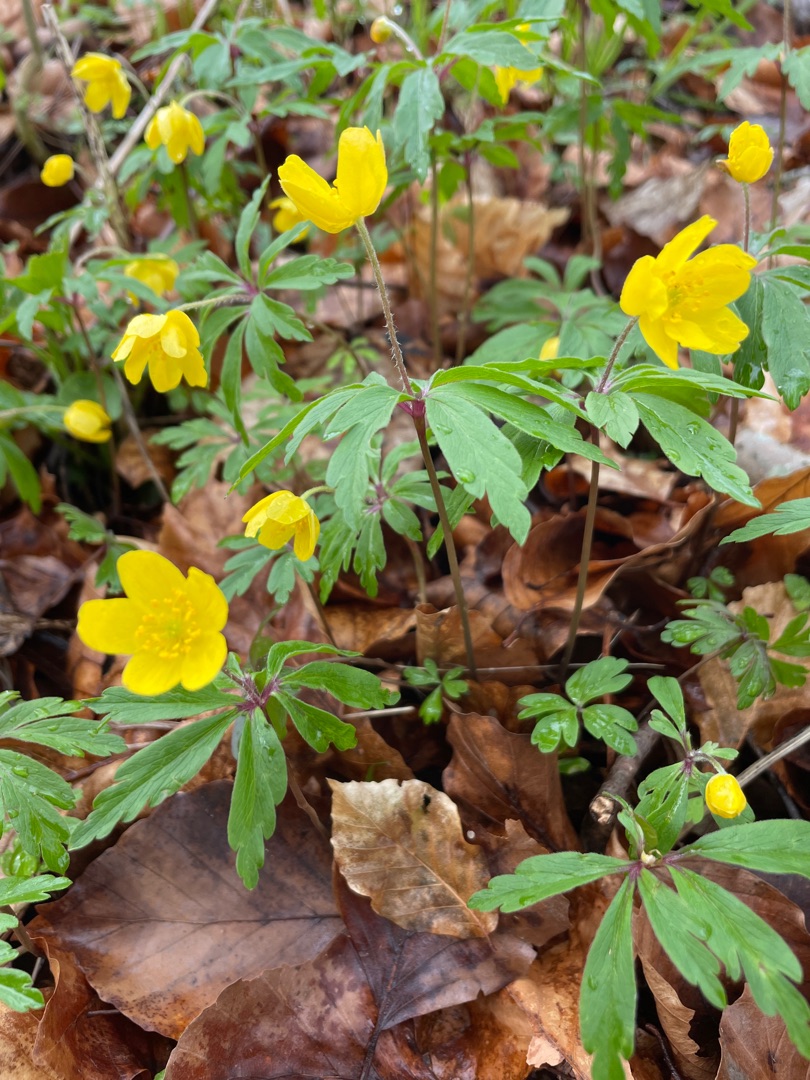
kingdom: Plantae
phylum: Tracheophyta
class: Magnoliopsida
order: Ranunculales
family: Ranunculaceae
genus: Anemone
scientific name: Anemone ranunculoides
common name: Gul anemone
